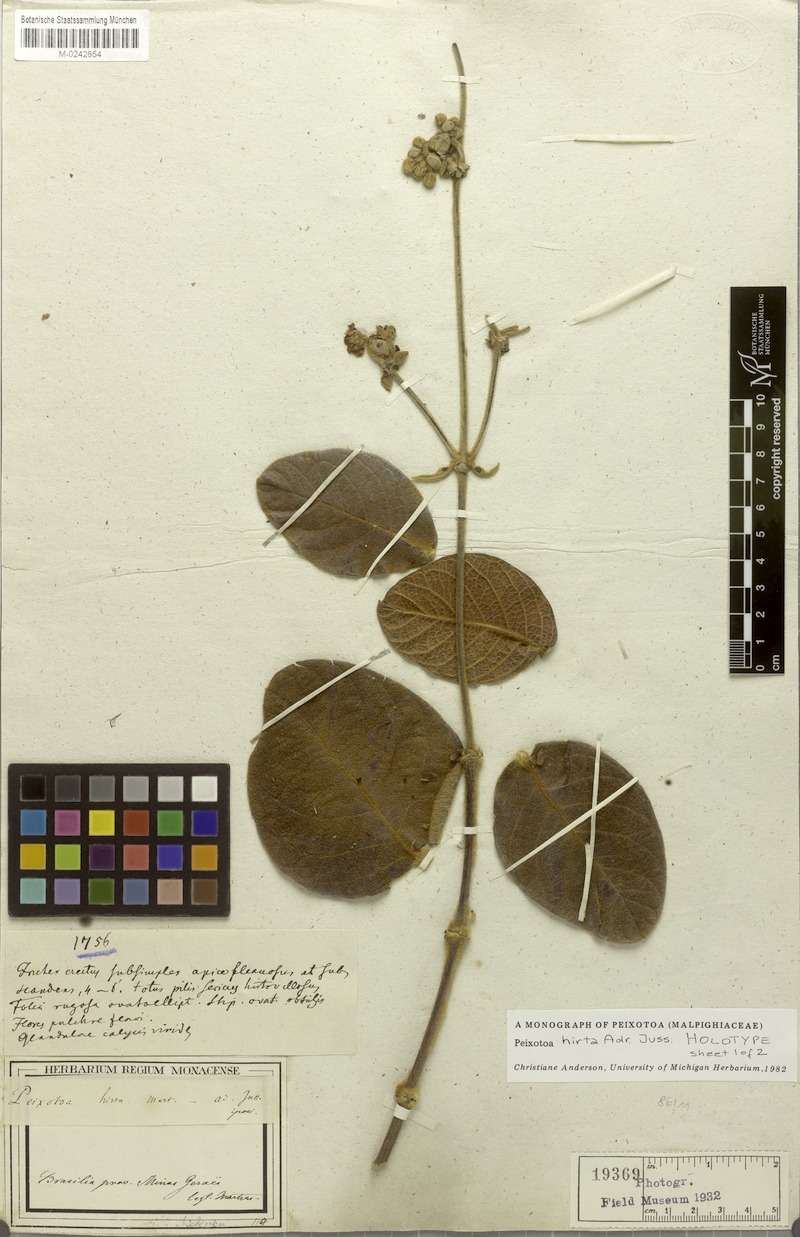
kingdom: Plantae
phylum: Tracheophyta
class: Magnoliopsida
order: Malpighiales
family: Malpighiaceae
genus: Peixotoa
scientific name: Peixotoa hirta
